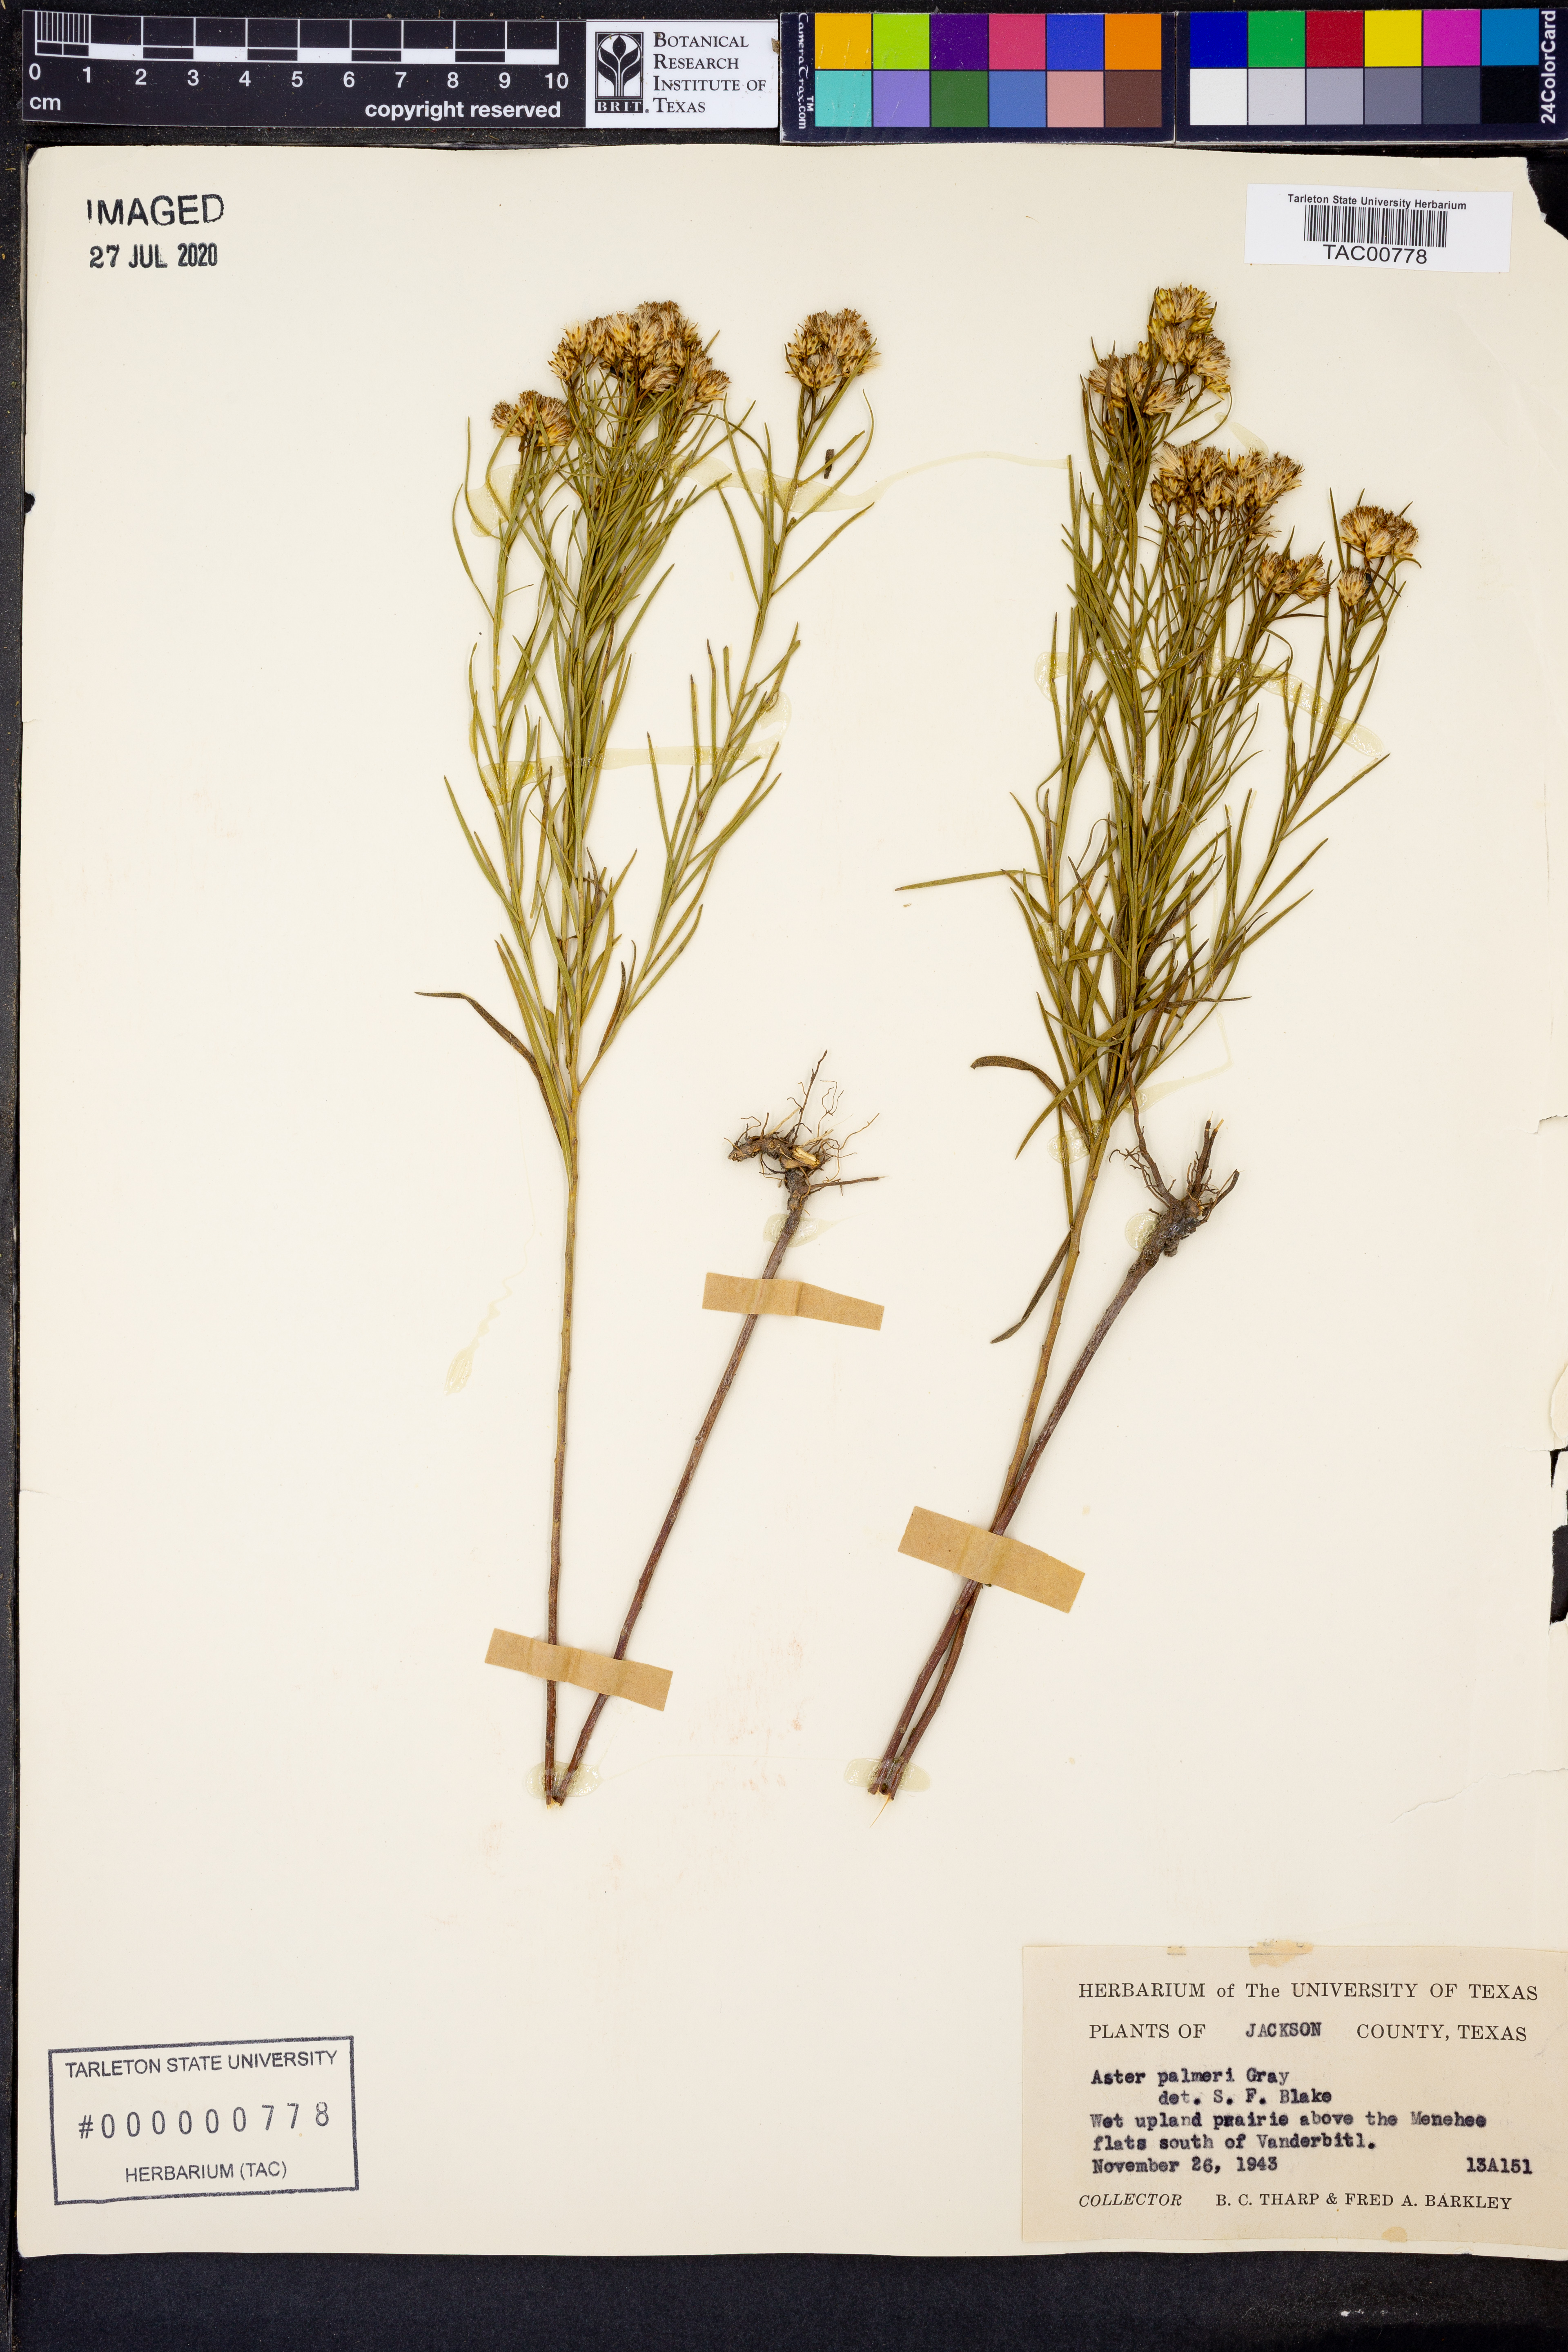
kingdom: Plantae
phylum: Tracheophyta
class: Magnoliopsida
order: Asterales
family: Asteraceae
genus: Medranoa
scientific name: Medranoa palmeri
